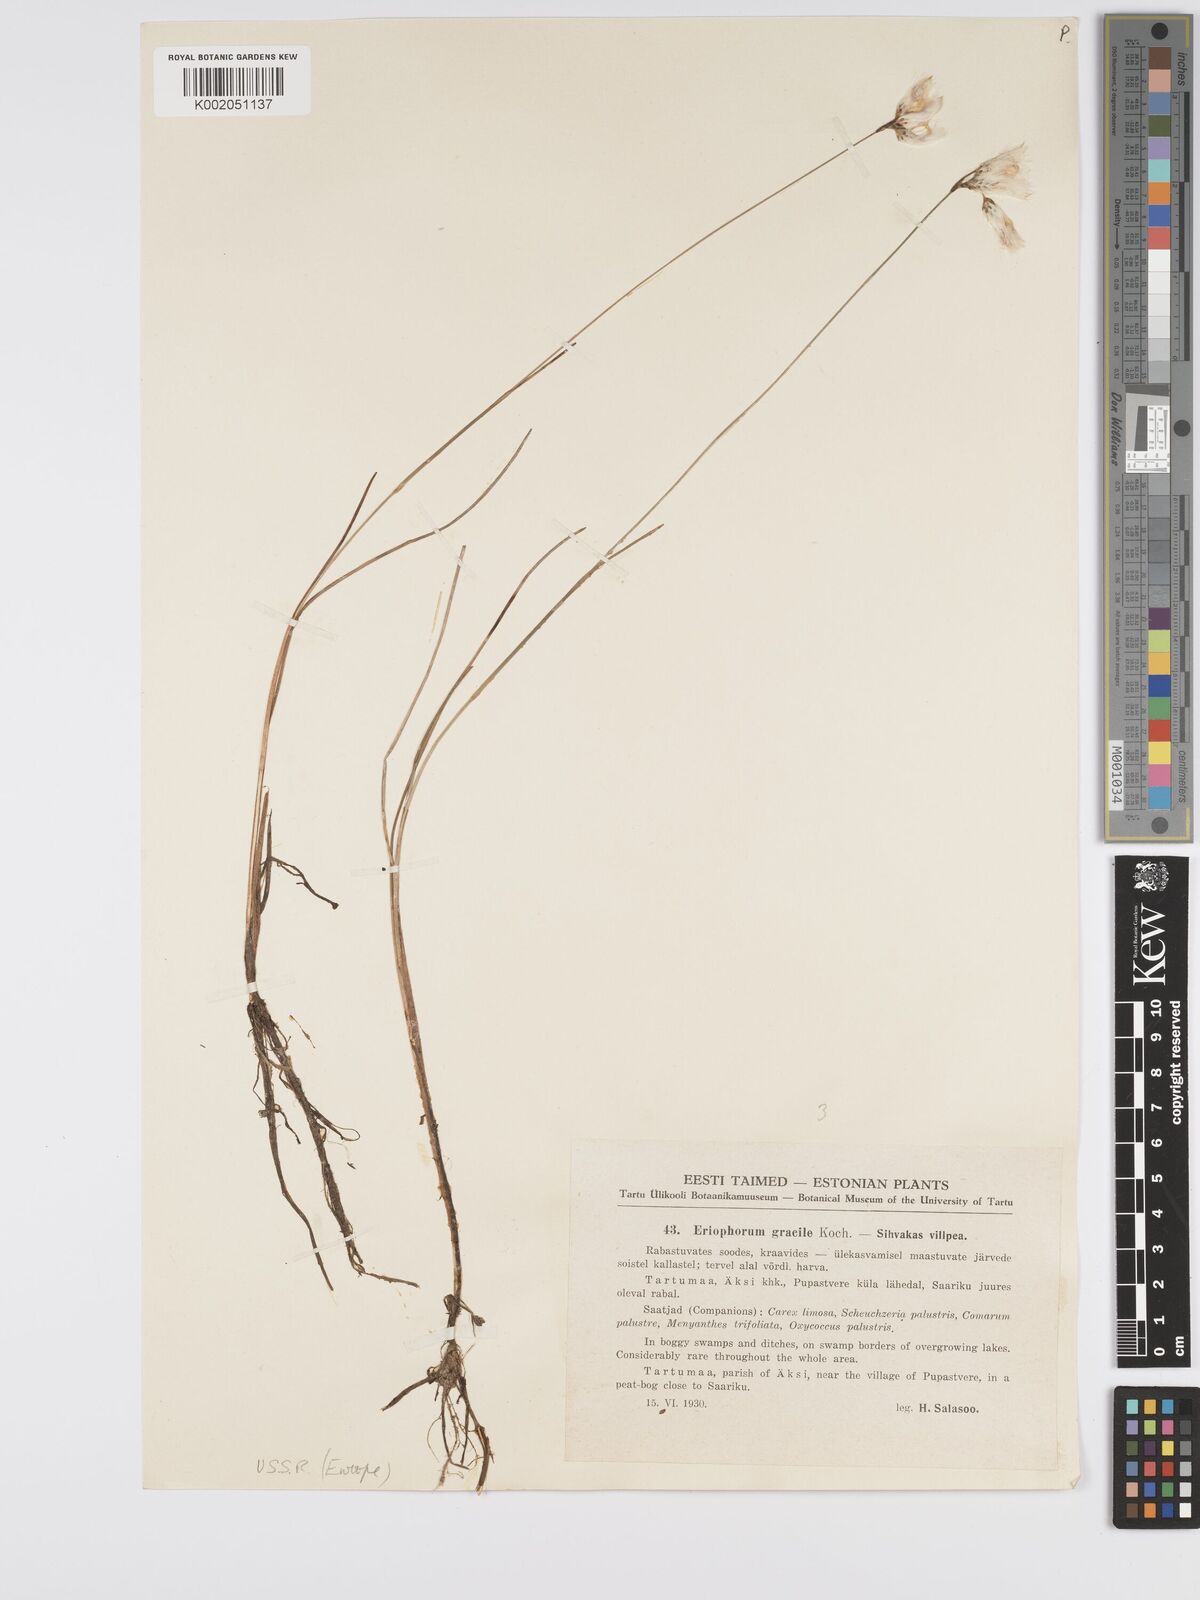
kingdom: Plantae
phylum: Tracheophyta
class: Liliopsida
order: Poales
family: Cyperaceae
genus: Eriophorum
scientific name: Eriophorum gracile
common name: Slender cottongrass
